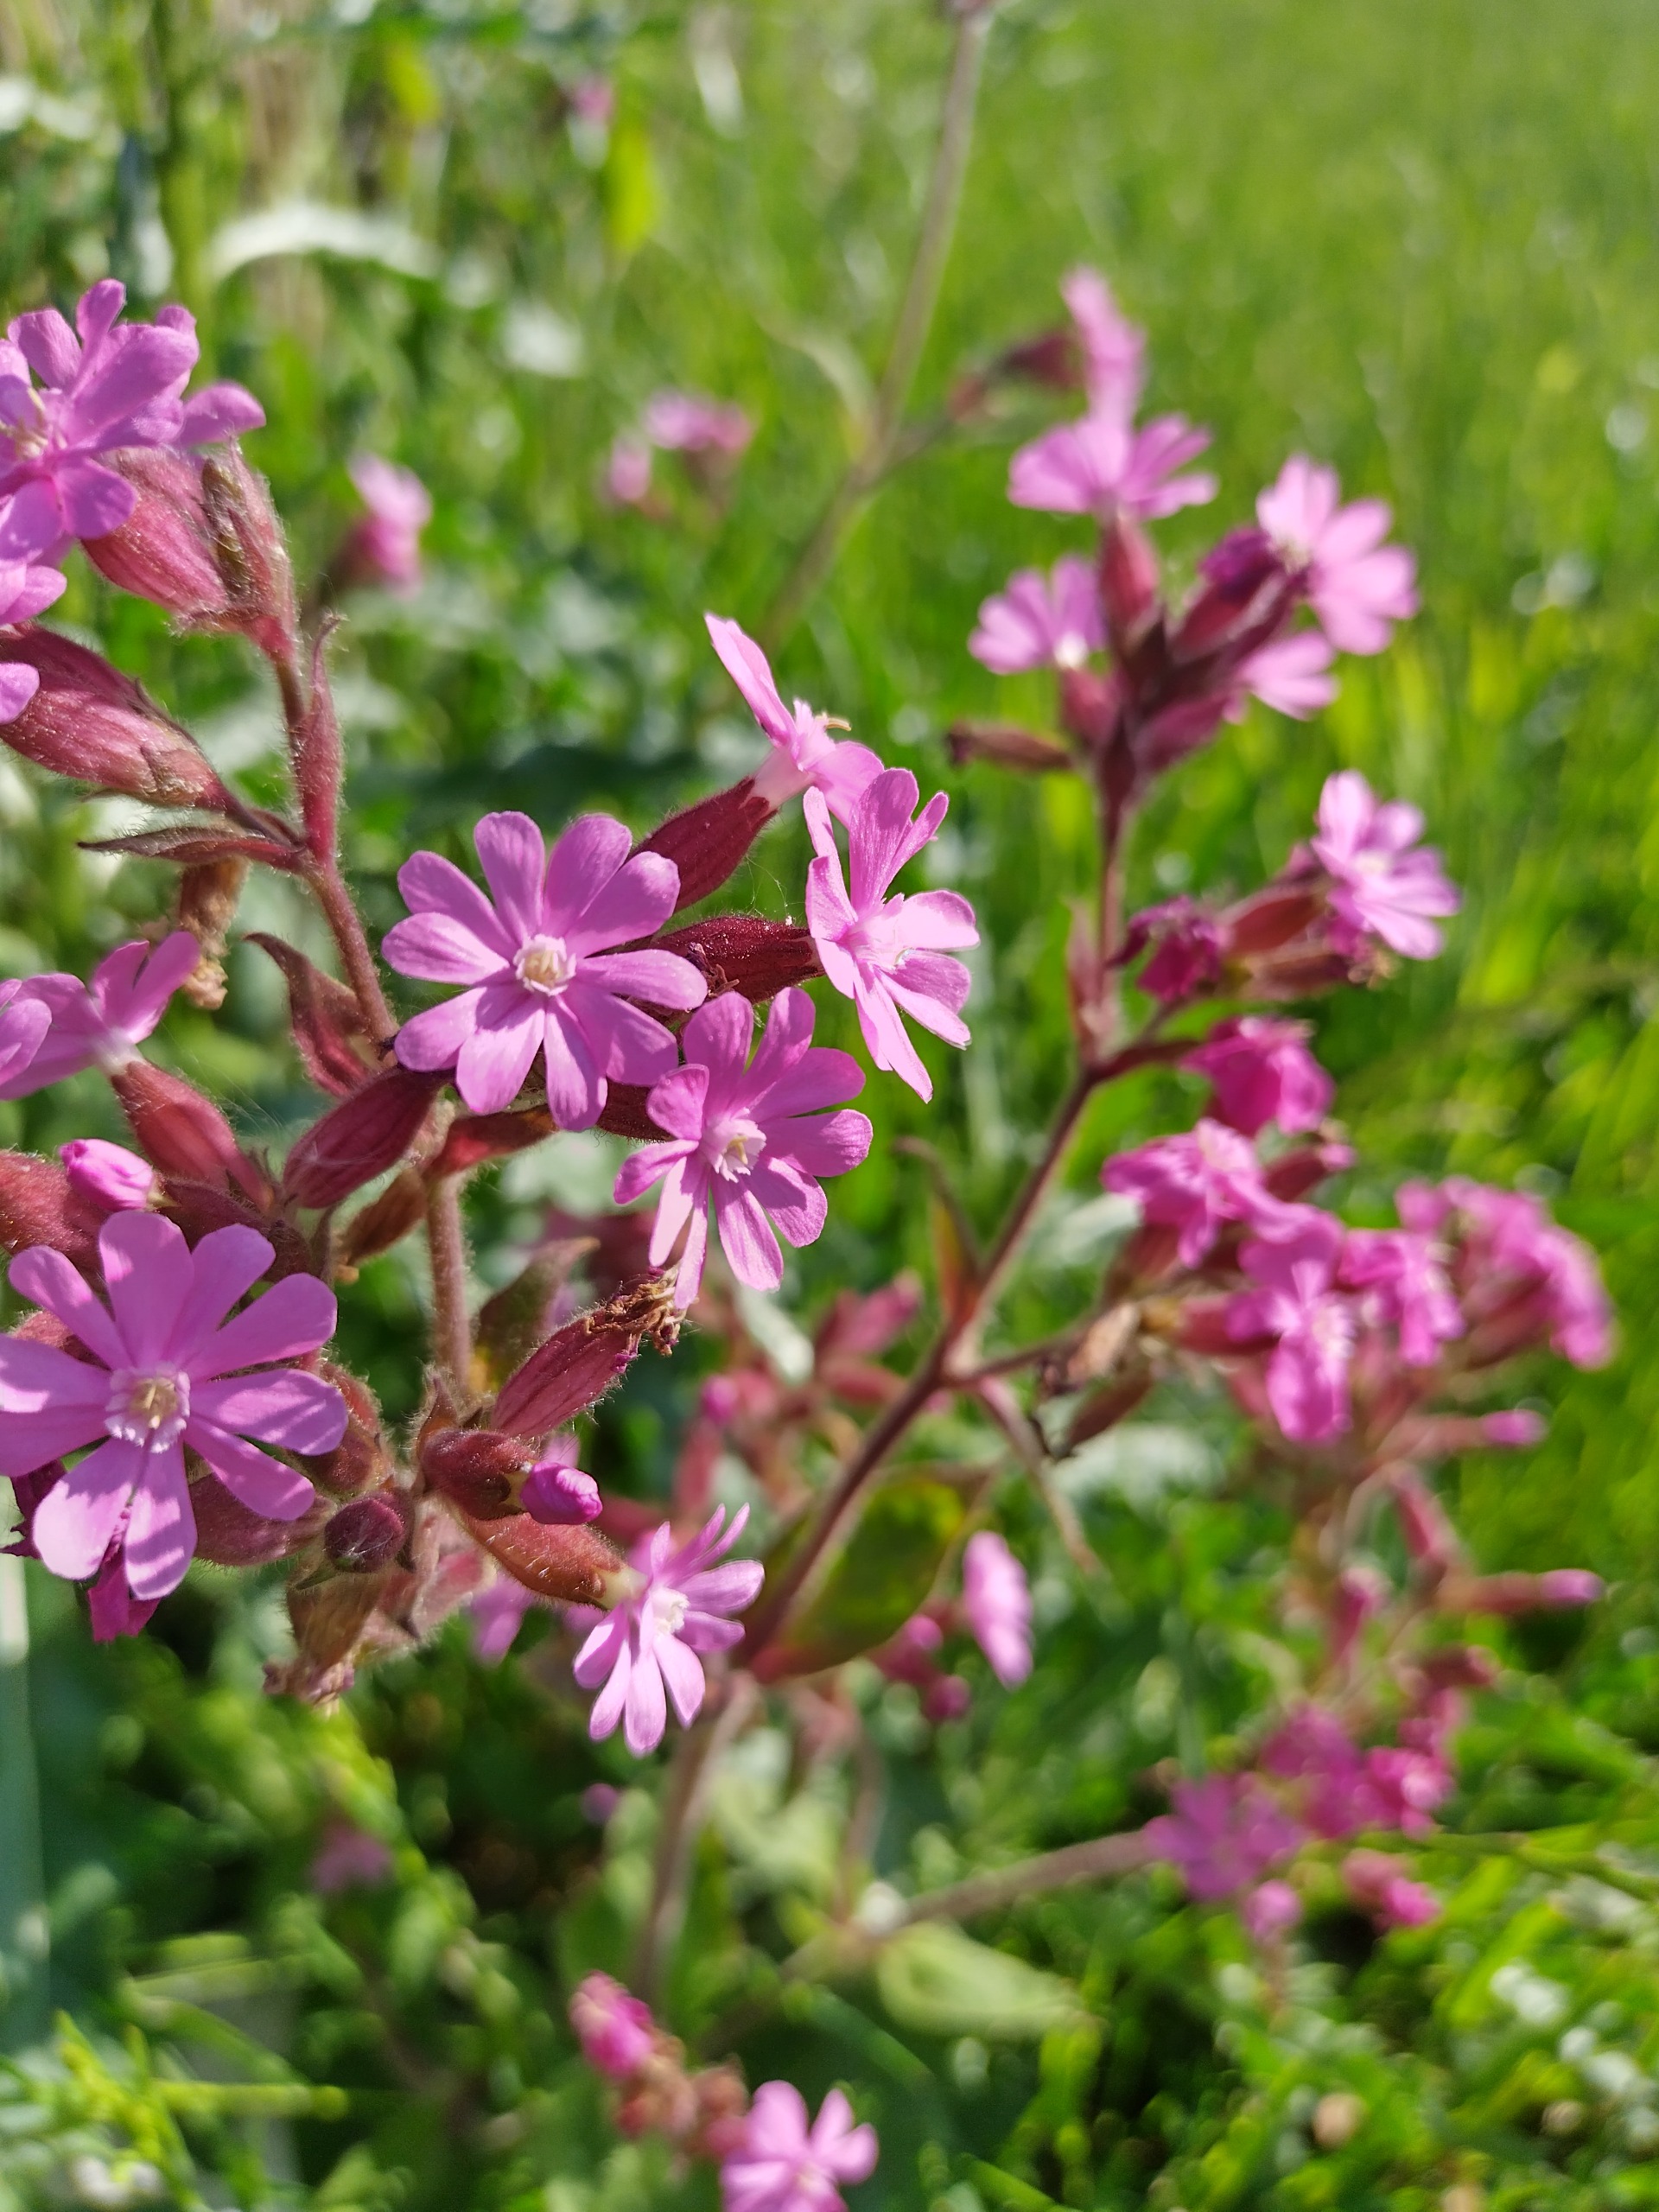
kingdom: Plantae
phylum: Tracheophyta
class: Magnoliopsida
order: Caryophyllales
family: Caryophyllaceae
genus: Silene
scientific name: Silene dioica
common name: Dagpragtstjerne
